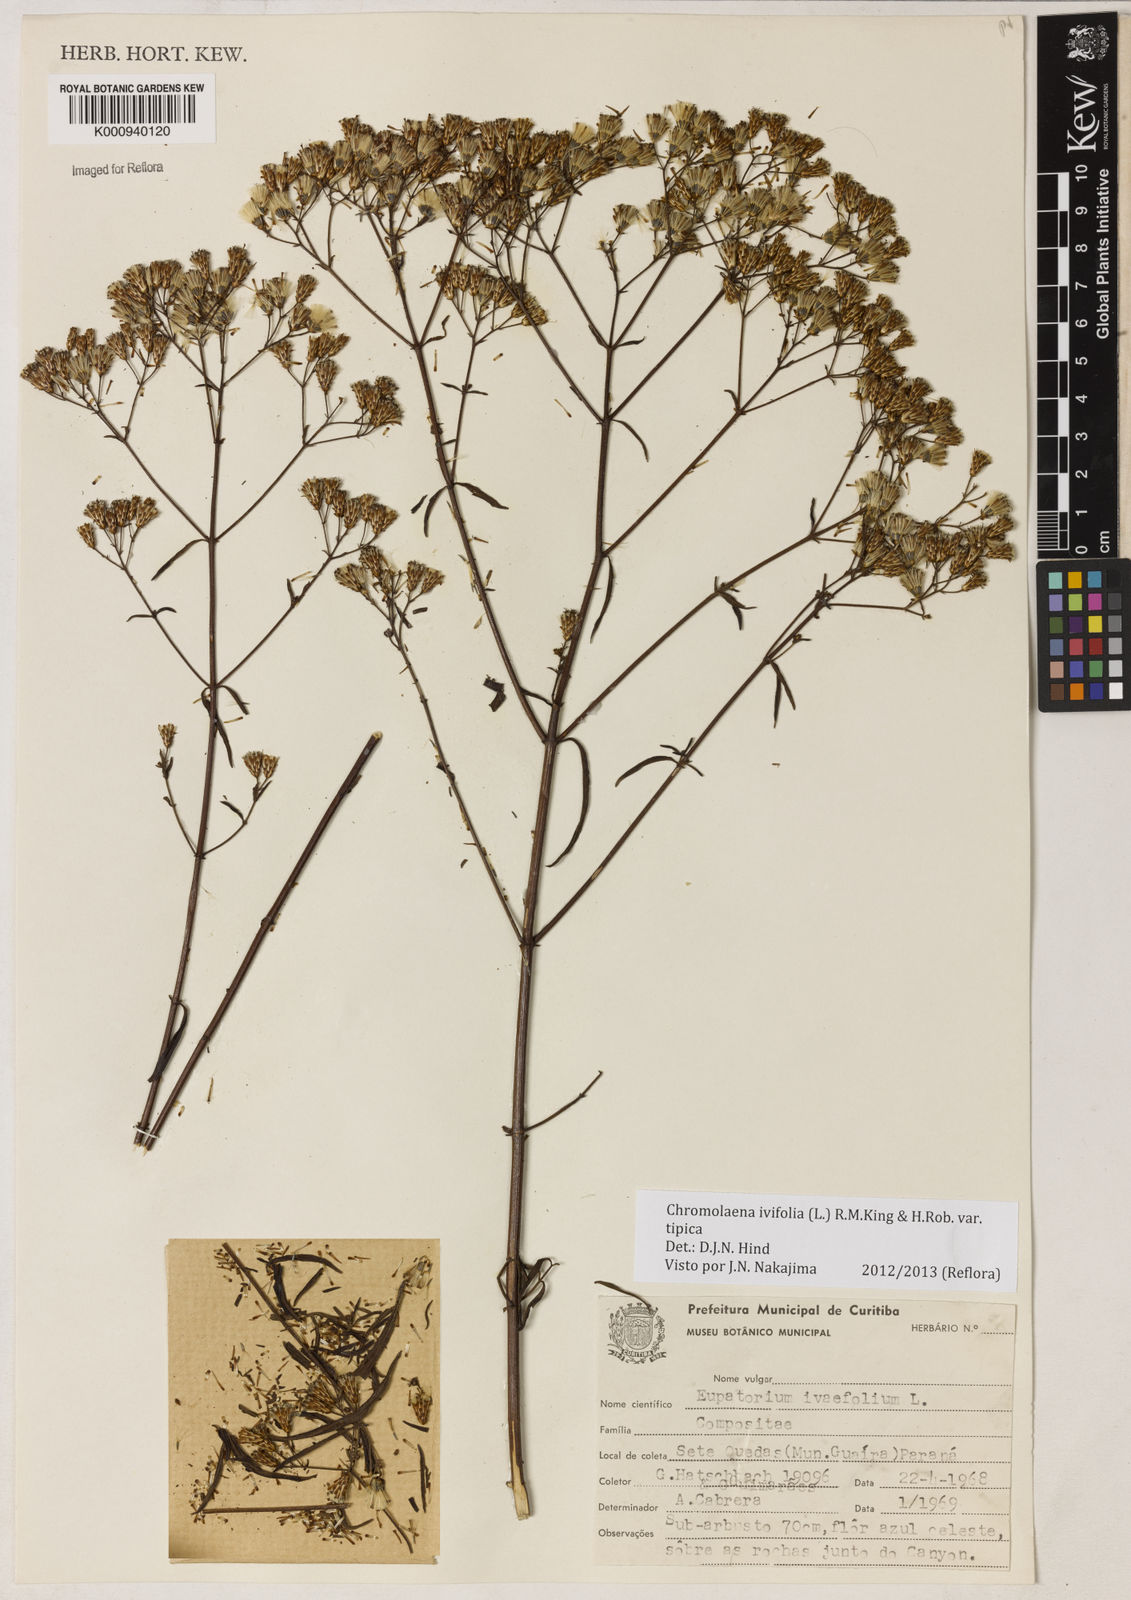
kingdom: Plantae
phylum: Tracheophyta
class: Magnoliopsida
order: Asterales
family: Asteraceae
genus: Chromolaena
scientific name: Chromolaena ivifolia
